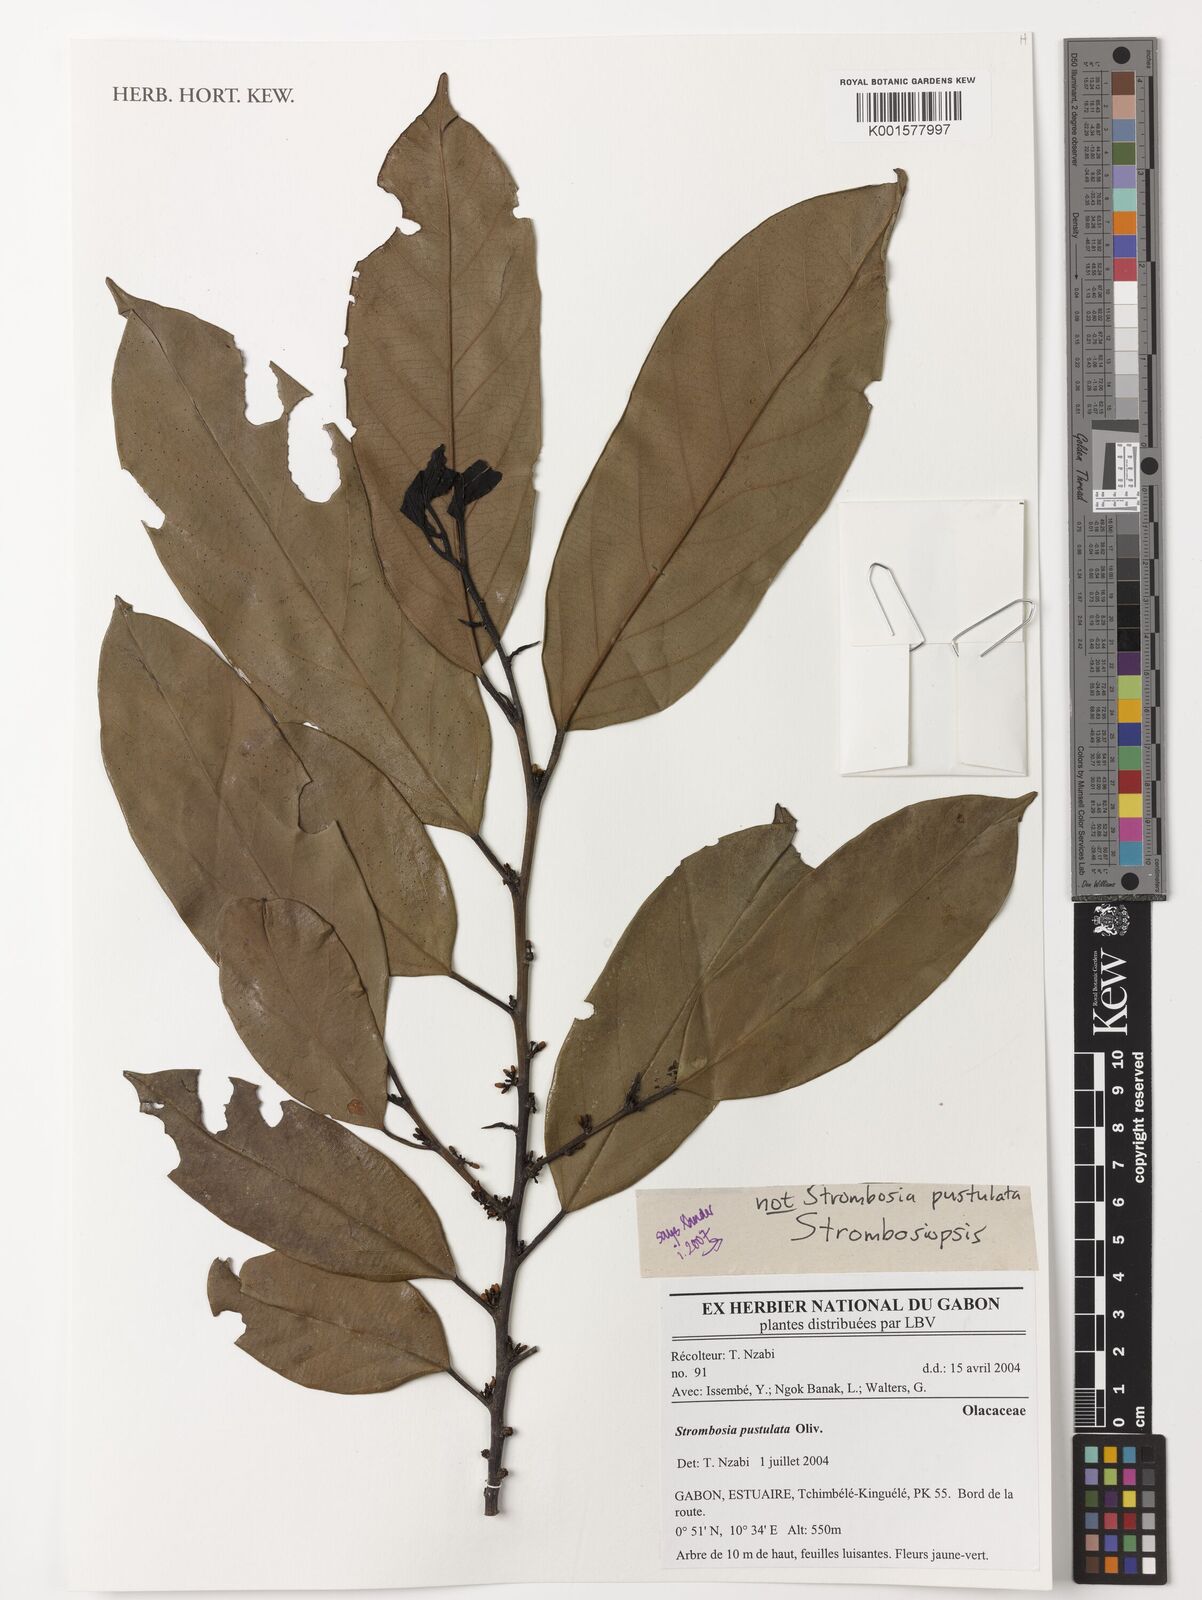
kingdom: Plantae
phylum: Tracheophyta
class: Magnoliopsida
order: Santalales
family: Strombosiaceae
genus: Strombosiopsis
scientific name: Strombosiopsis
